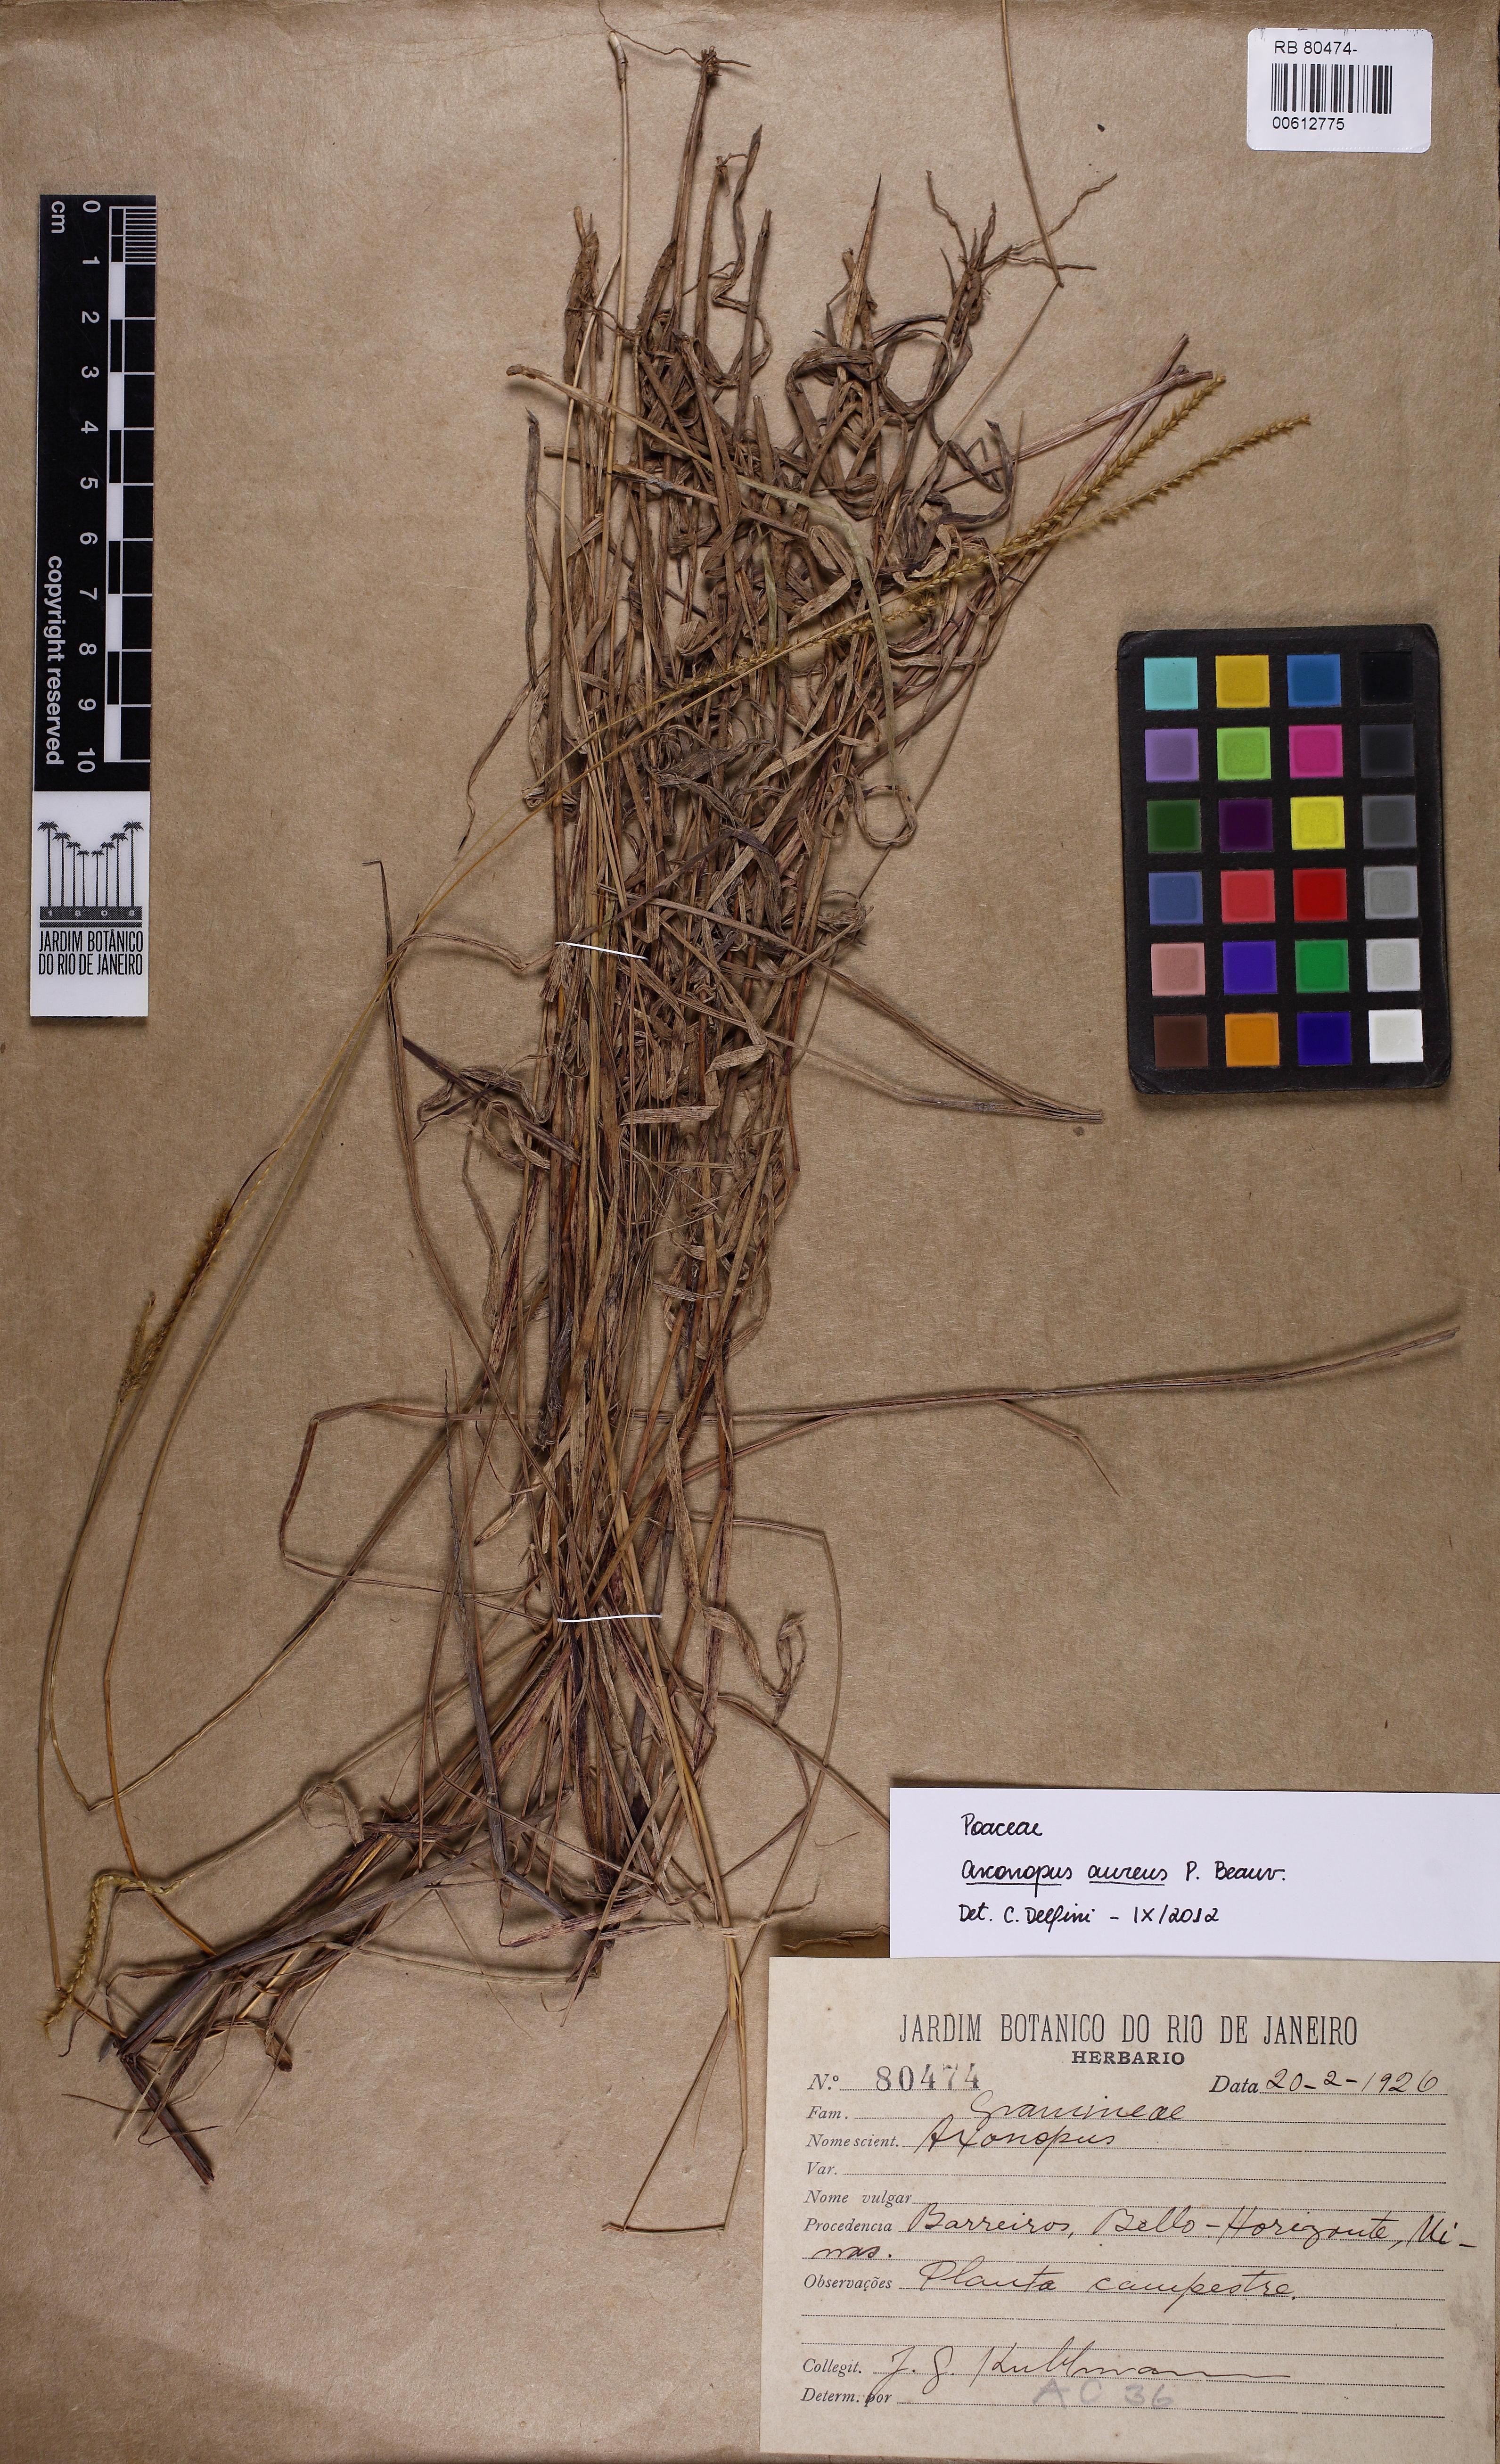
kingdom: Plantae
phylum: Tracheophyta
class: Liliopsida
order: Poales
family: Poaceae
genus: Axonopus
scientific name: Axonopus aureus
